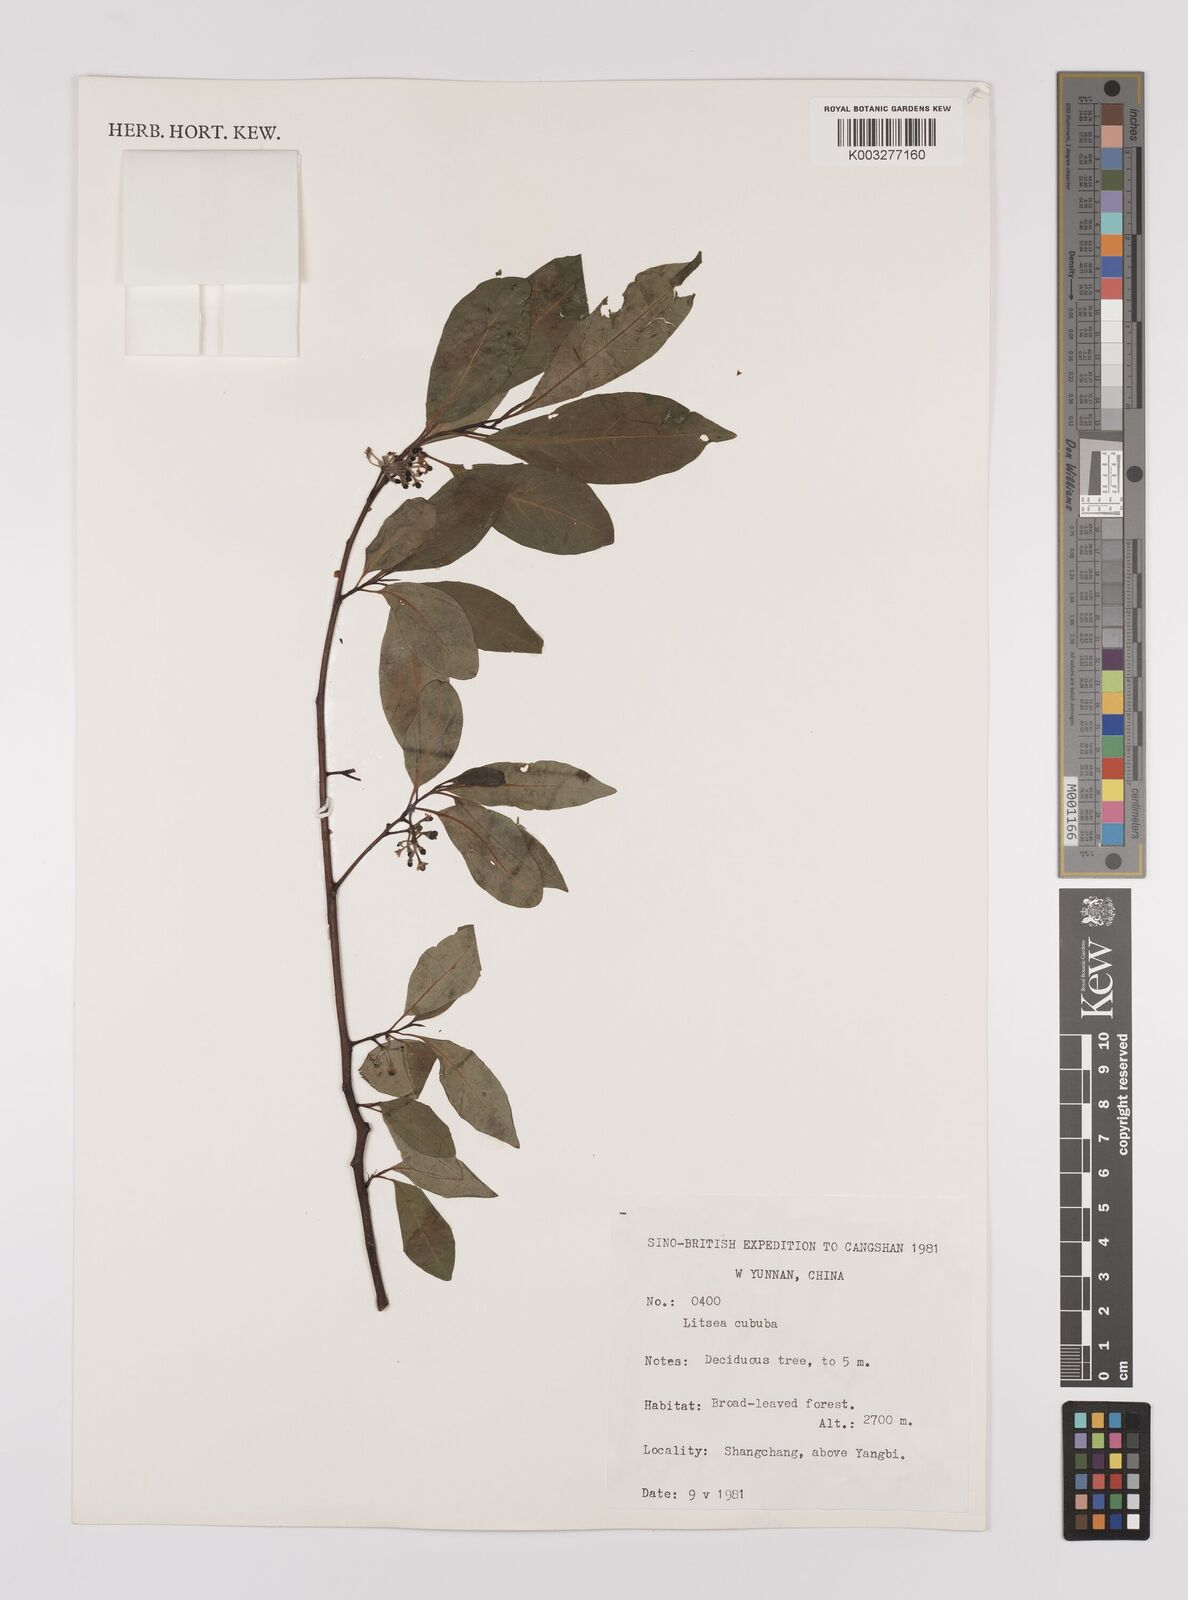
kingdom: Plantae
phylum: Tracheophyta
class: Magnoliopsida
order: Laurales
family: Lauraceae
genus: Litsea
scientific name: Litsea cubeba
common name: Mountain-pepper
